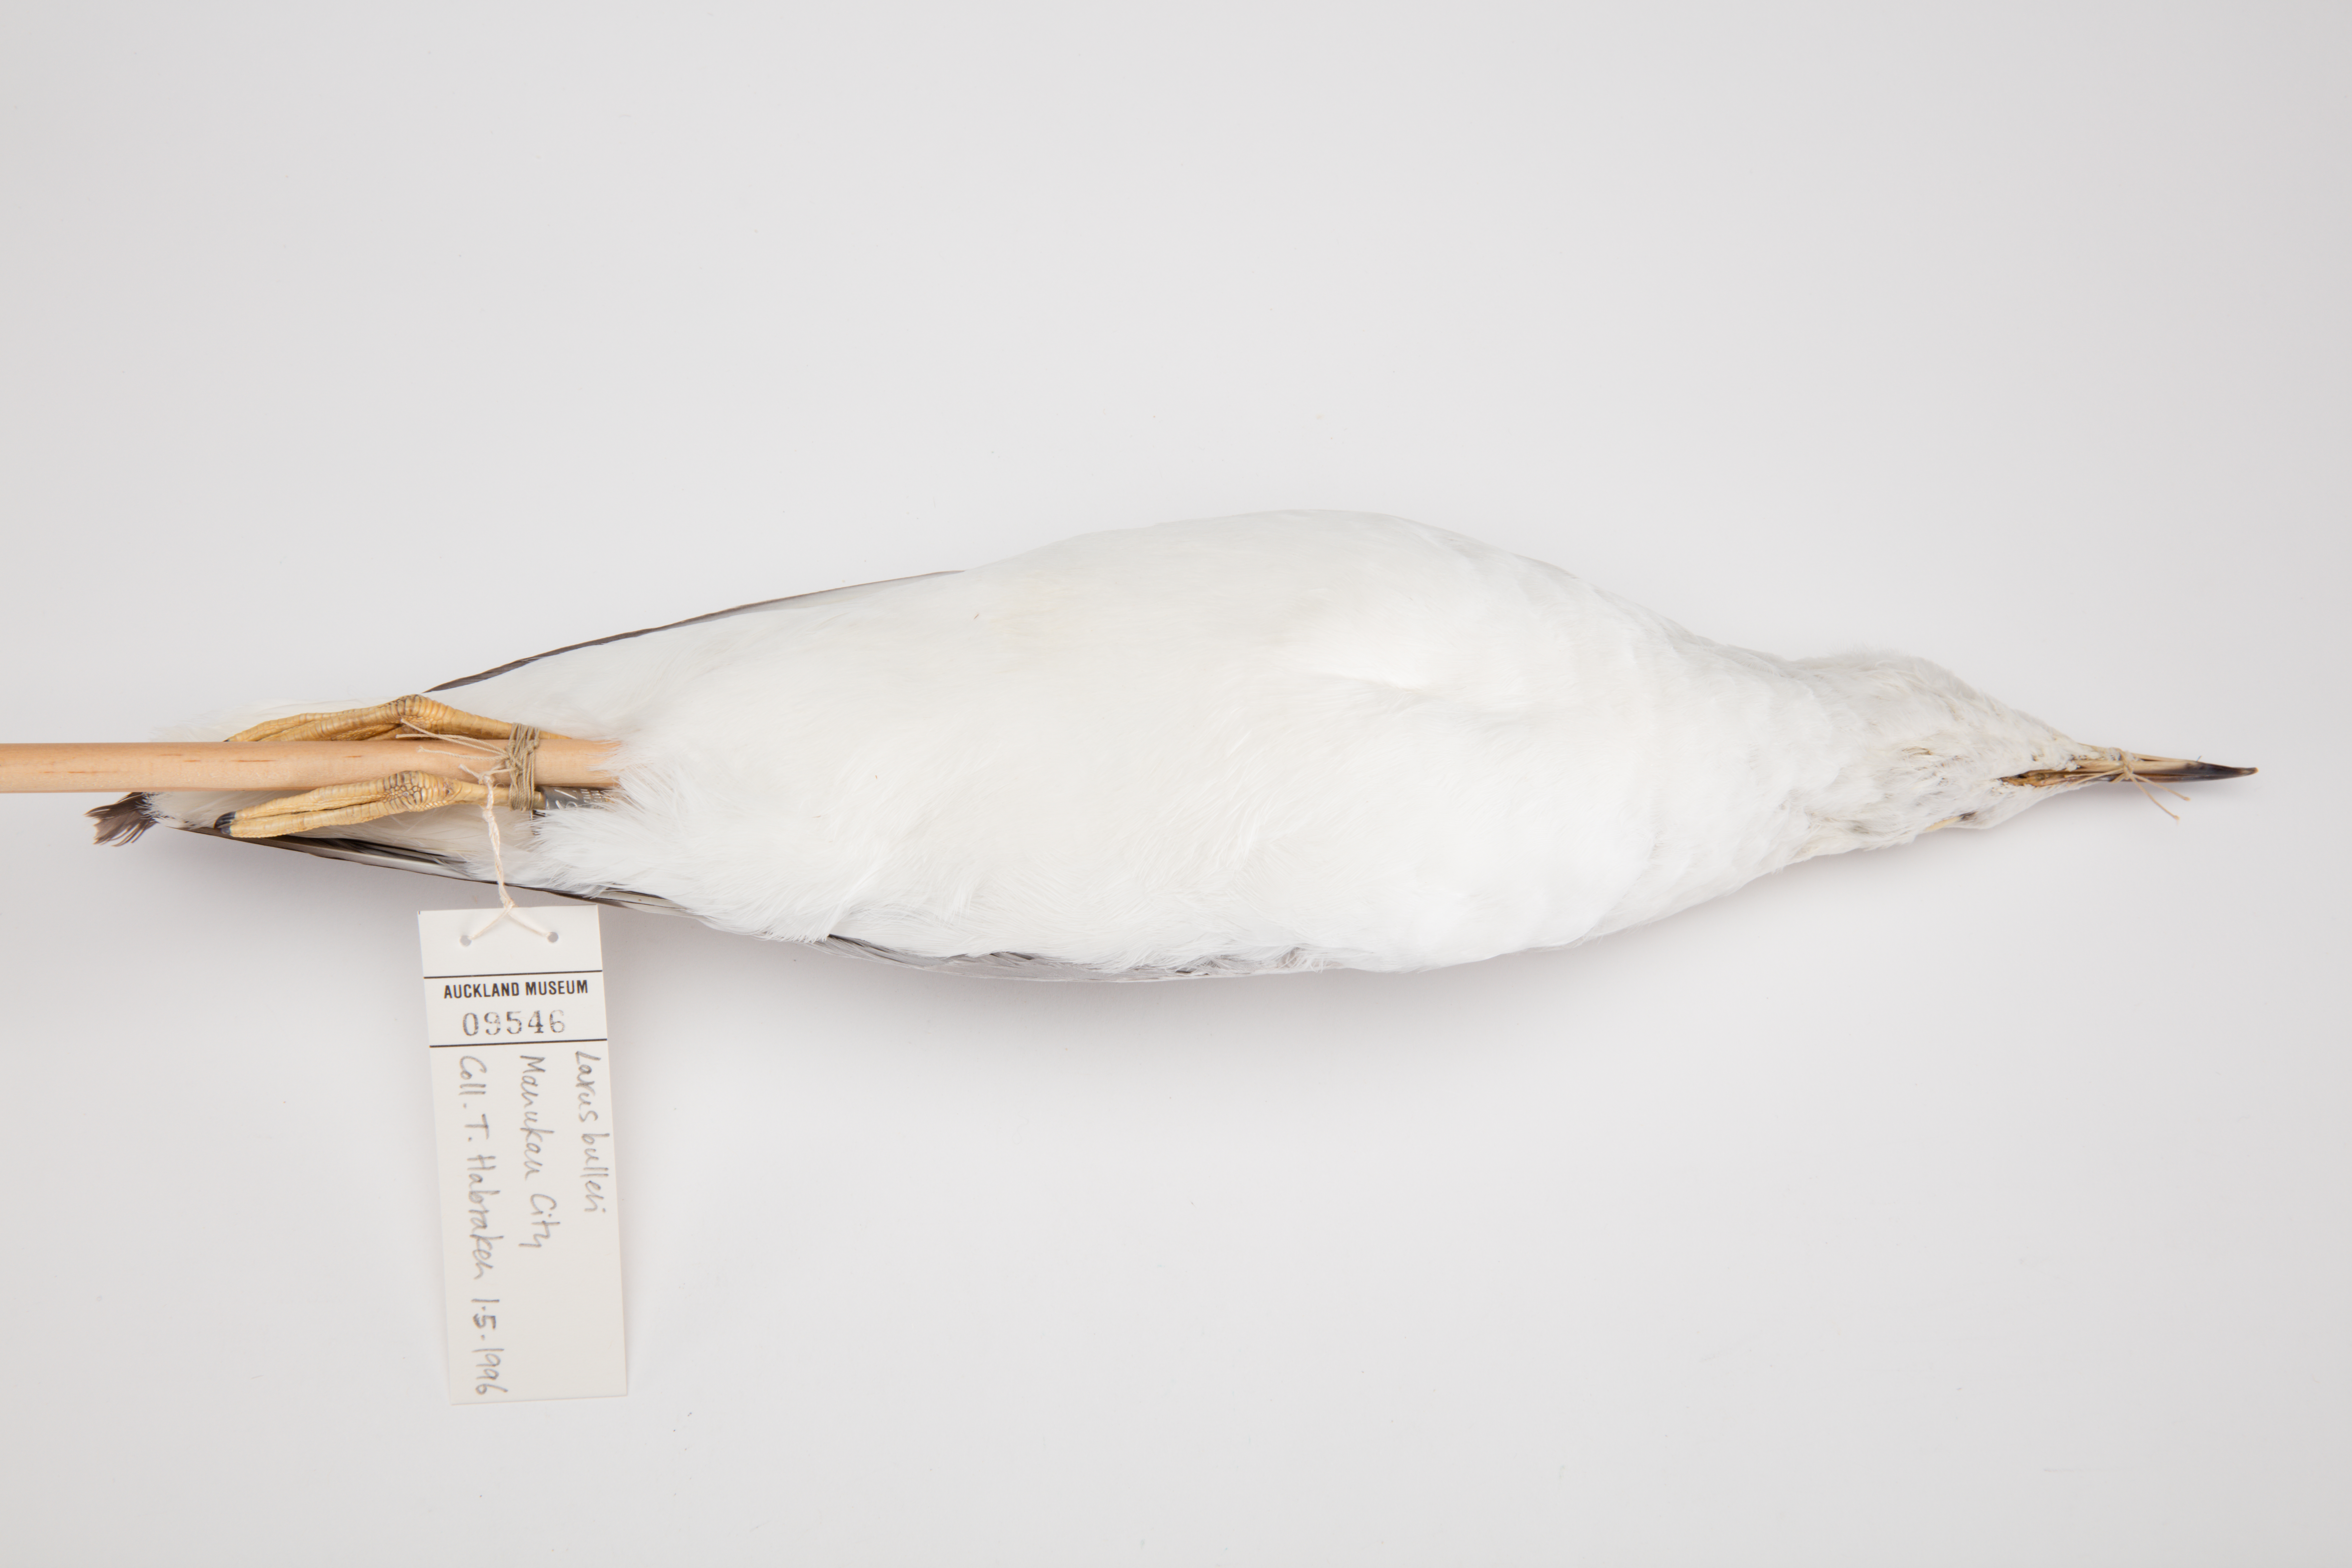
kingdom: Animalia
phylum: Chordata
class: Aves
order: Charadriiformes
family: Laridae
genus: Chroicocephalus
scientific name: Chroicocephalus bulleri
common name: Black-billed gull
